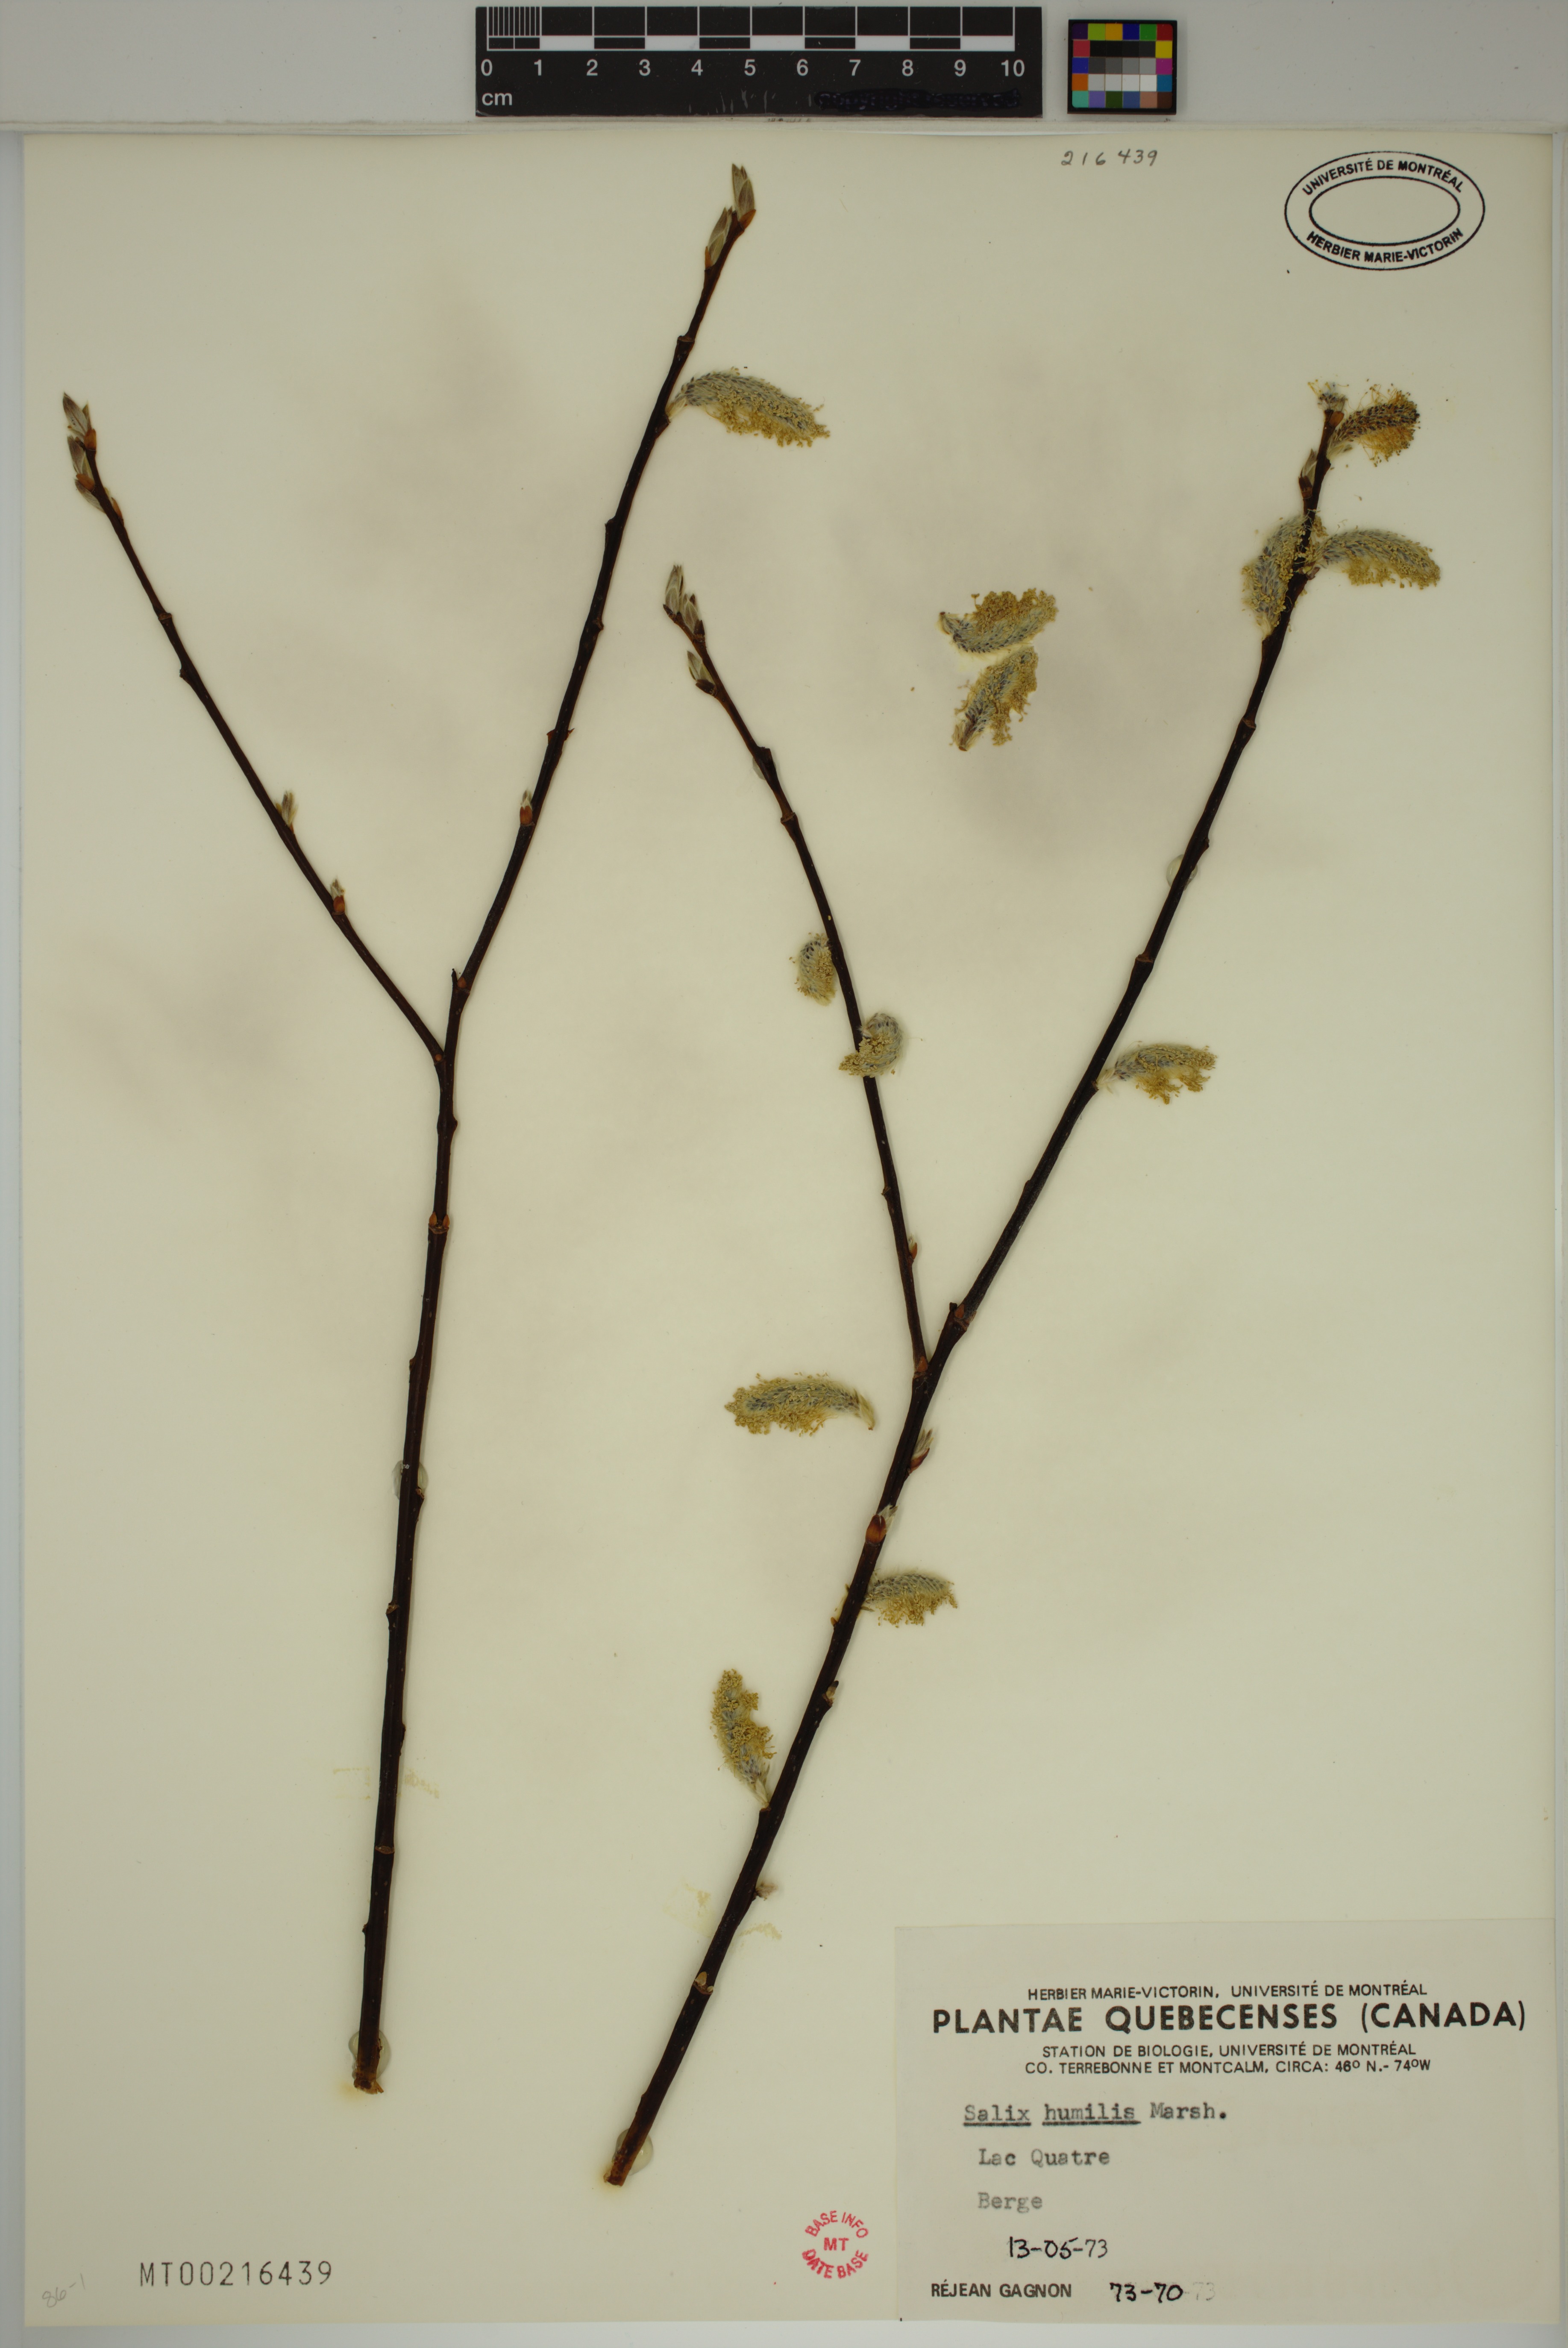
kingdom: Plantae
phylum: Tracheophyta
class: Magnoliopsida
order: Malpighiales
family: Salicaceae
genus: Salix
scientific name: Salix humilis
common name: Prairie willow
